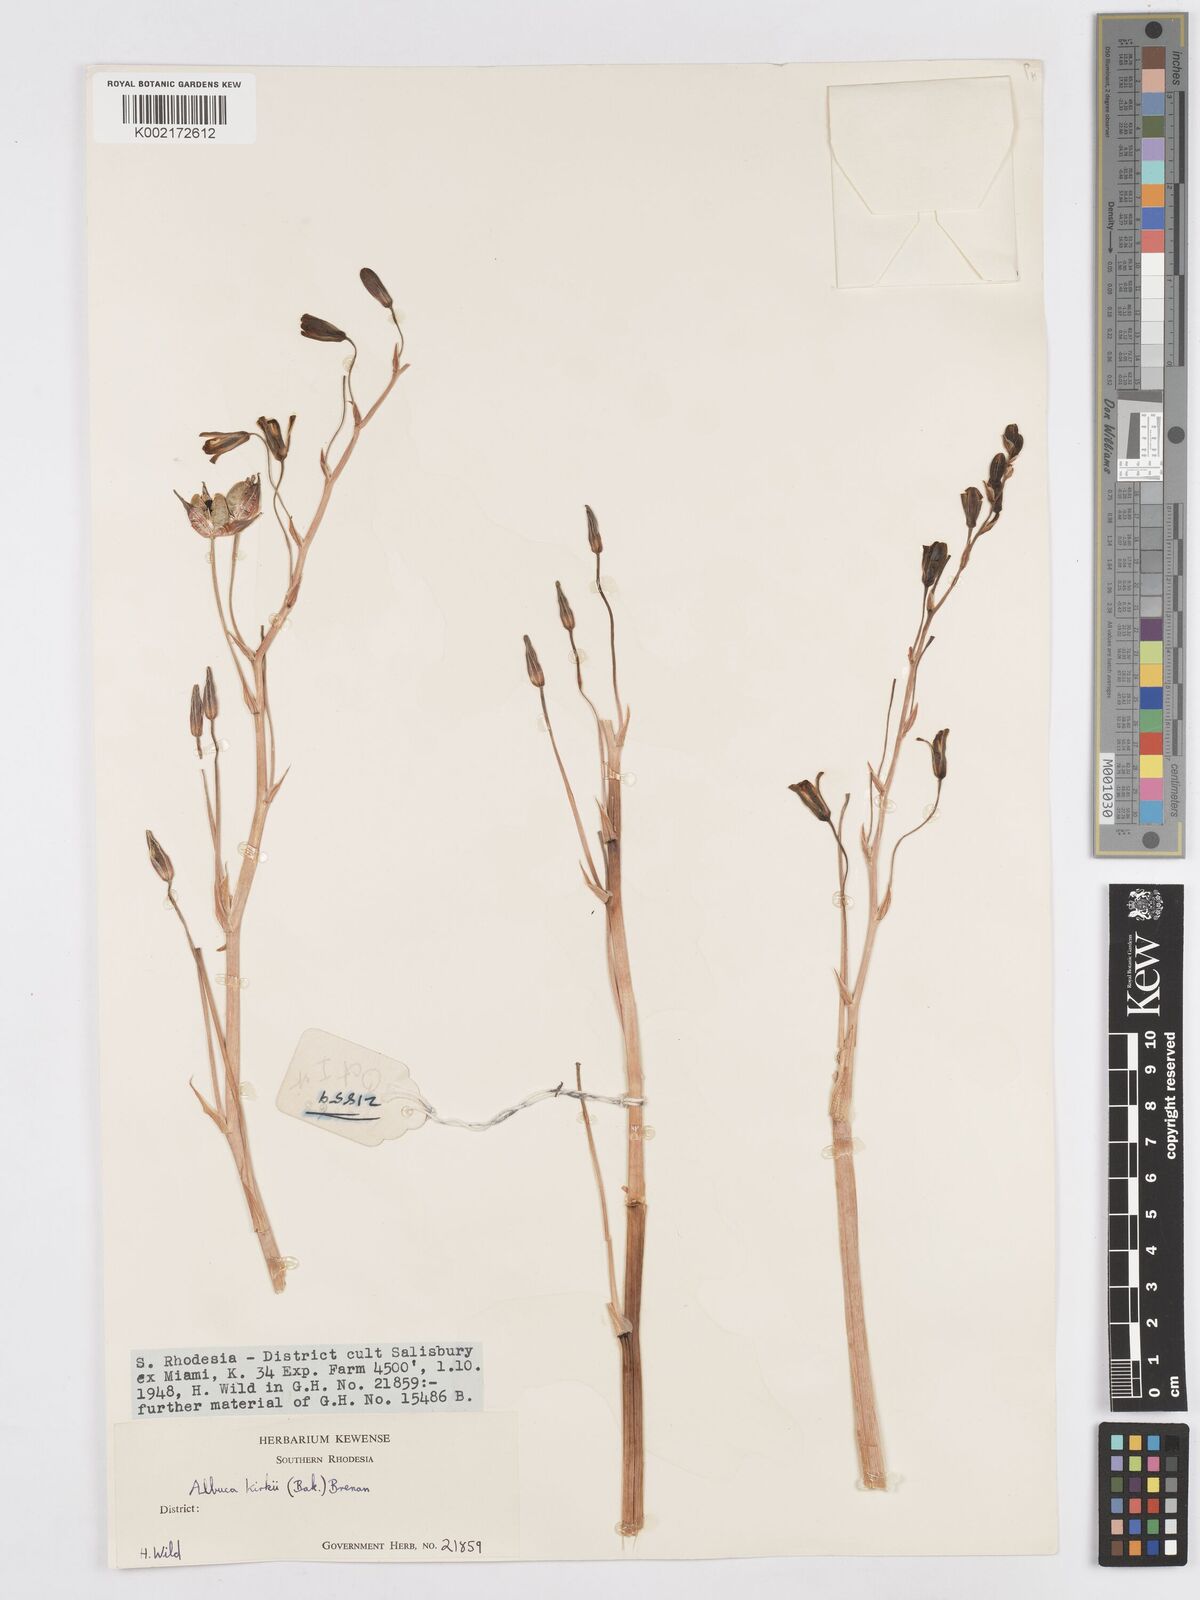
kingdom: Plantae
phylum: Tracheophyta
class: Liliopsida
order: Asparagales
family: Asparagaceae
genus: Albuca
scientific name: Albuca kirkii
